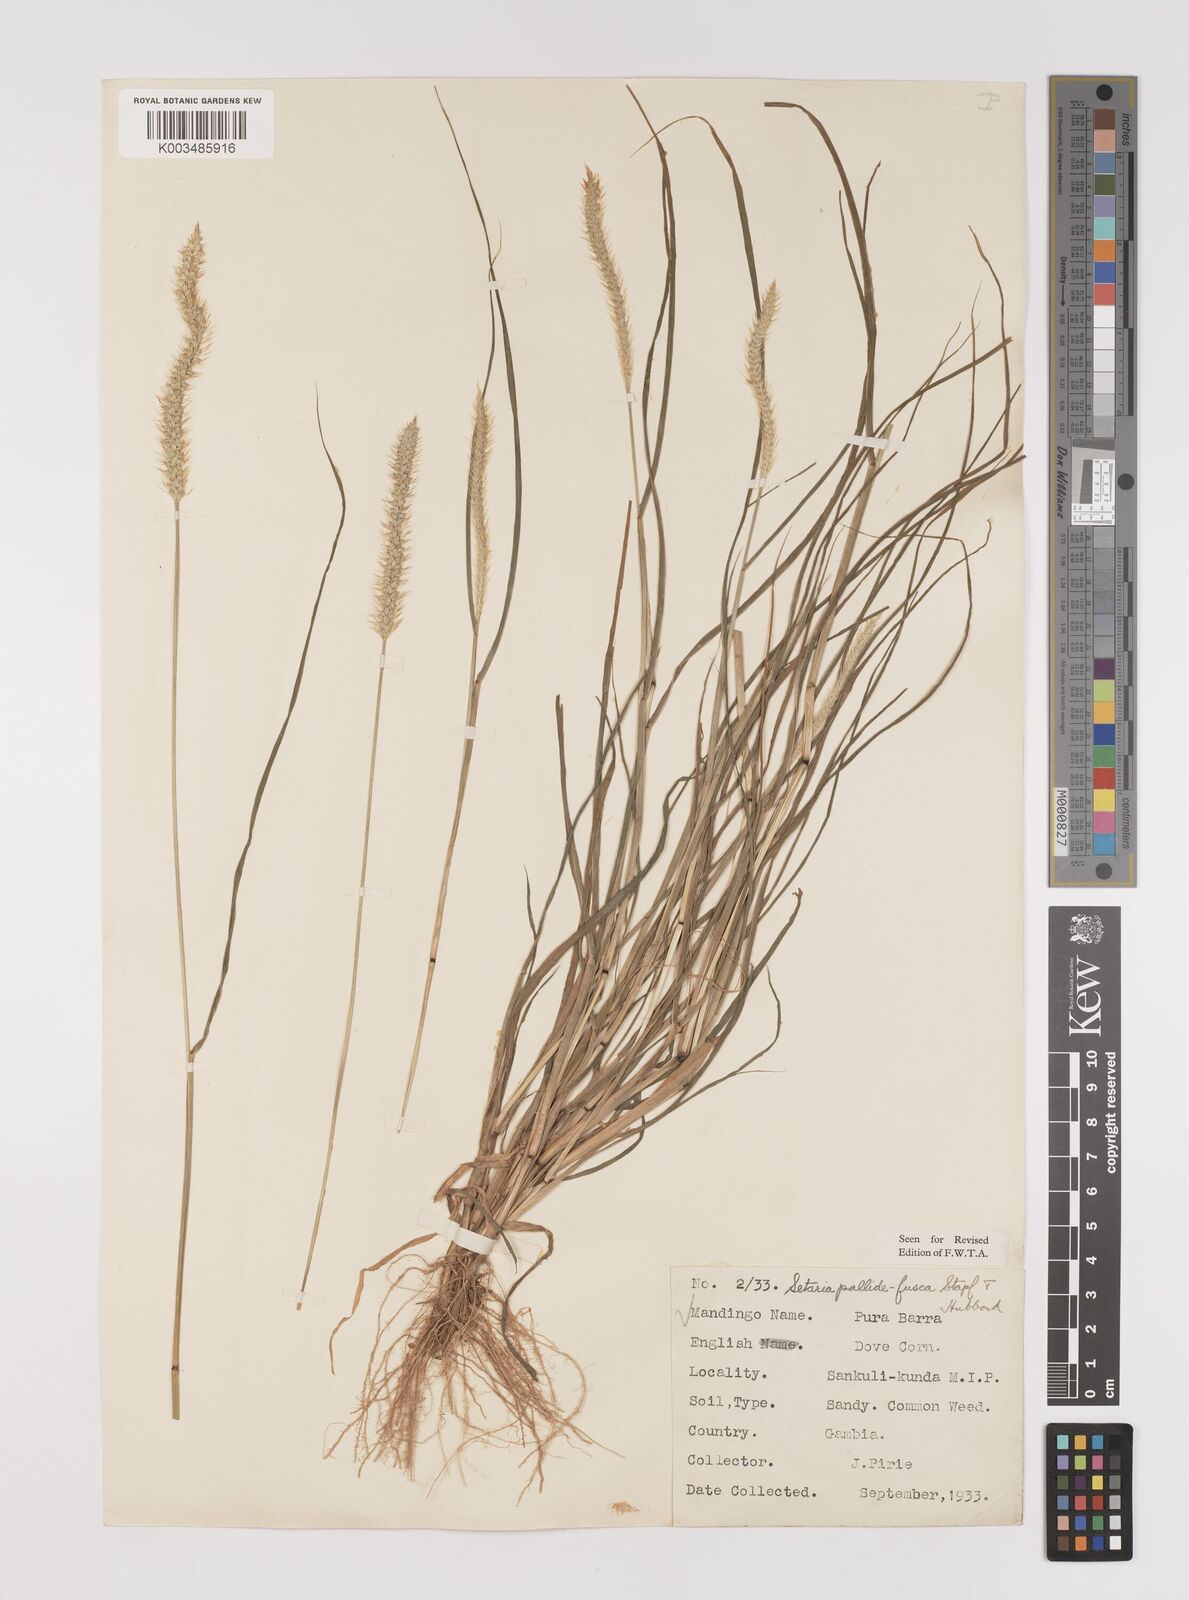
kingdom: Plantae
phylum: Tracheophyta
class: Liliopsida
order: Poales
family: Poaceae
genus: Setaria
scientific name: Setaria pumila
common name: Yellow bristle-grass
